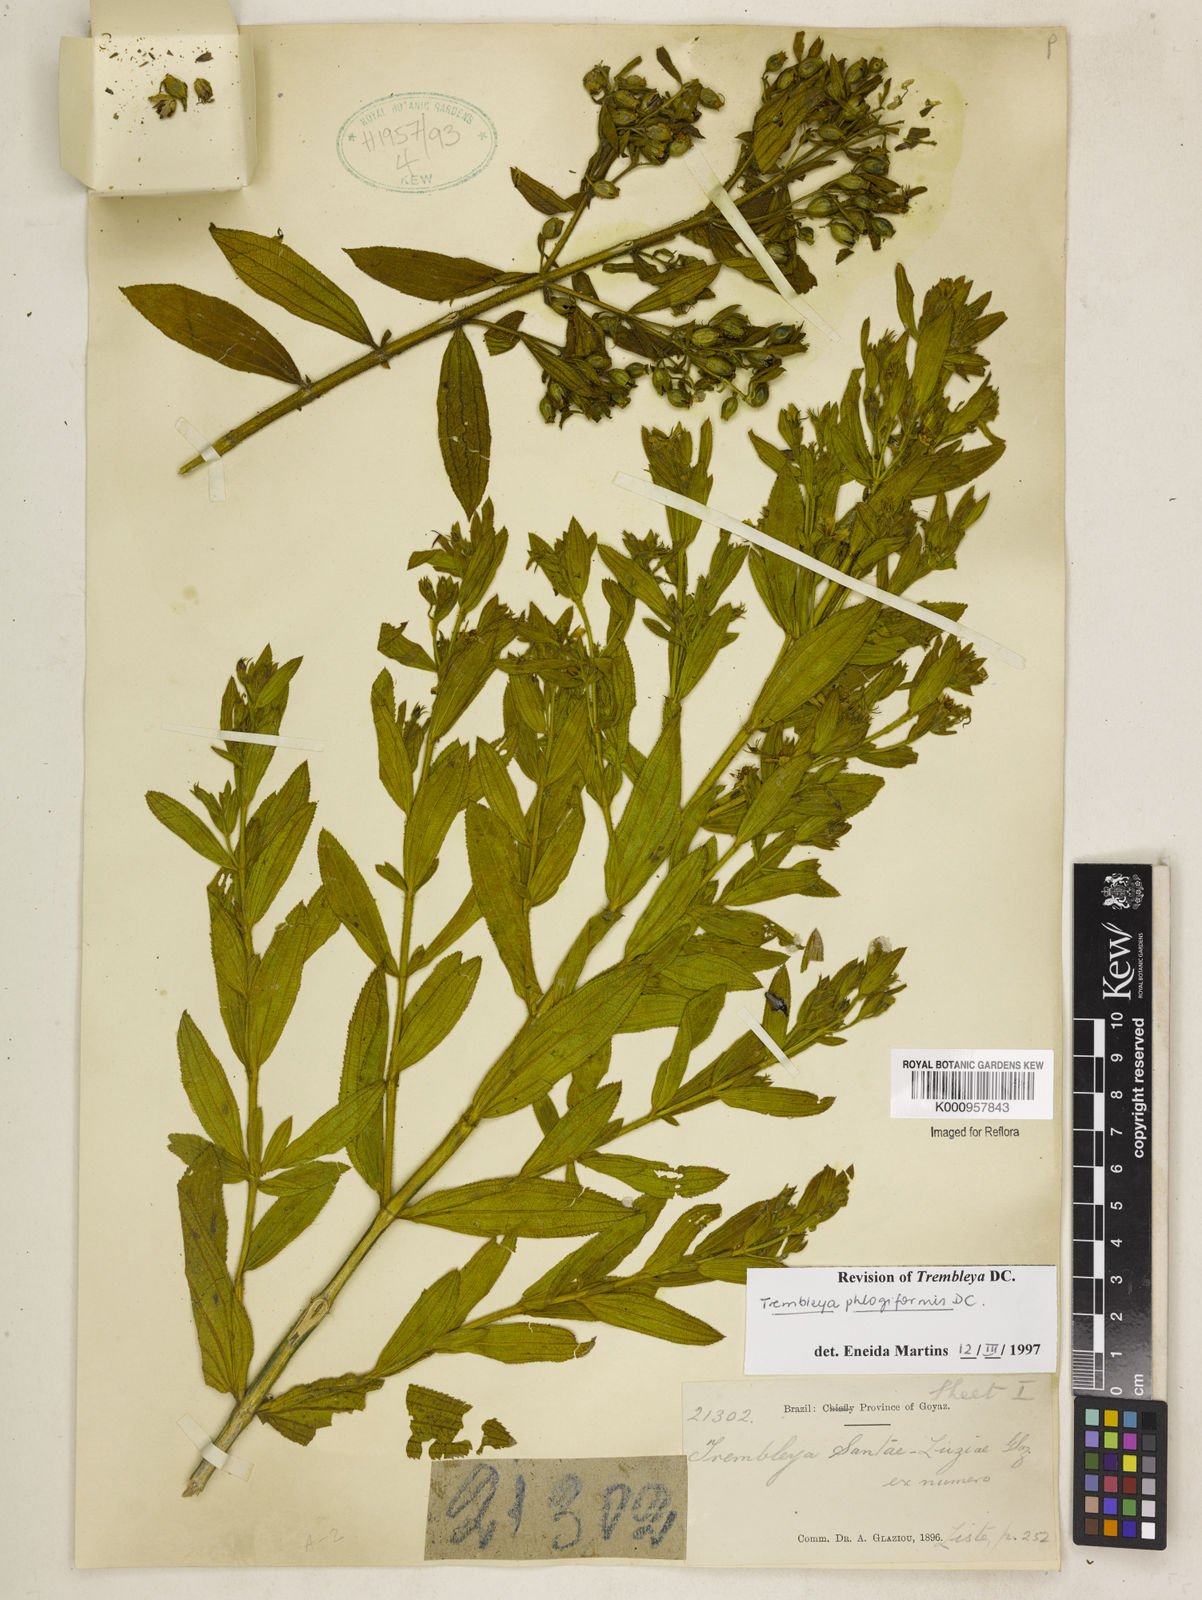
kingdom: Plantae
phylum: Tracheophyta
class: Magnoliopsida
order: Myrtales
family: Melastomataceae
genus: Microlicia
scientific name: Microlicia phlogiformis
